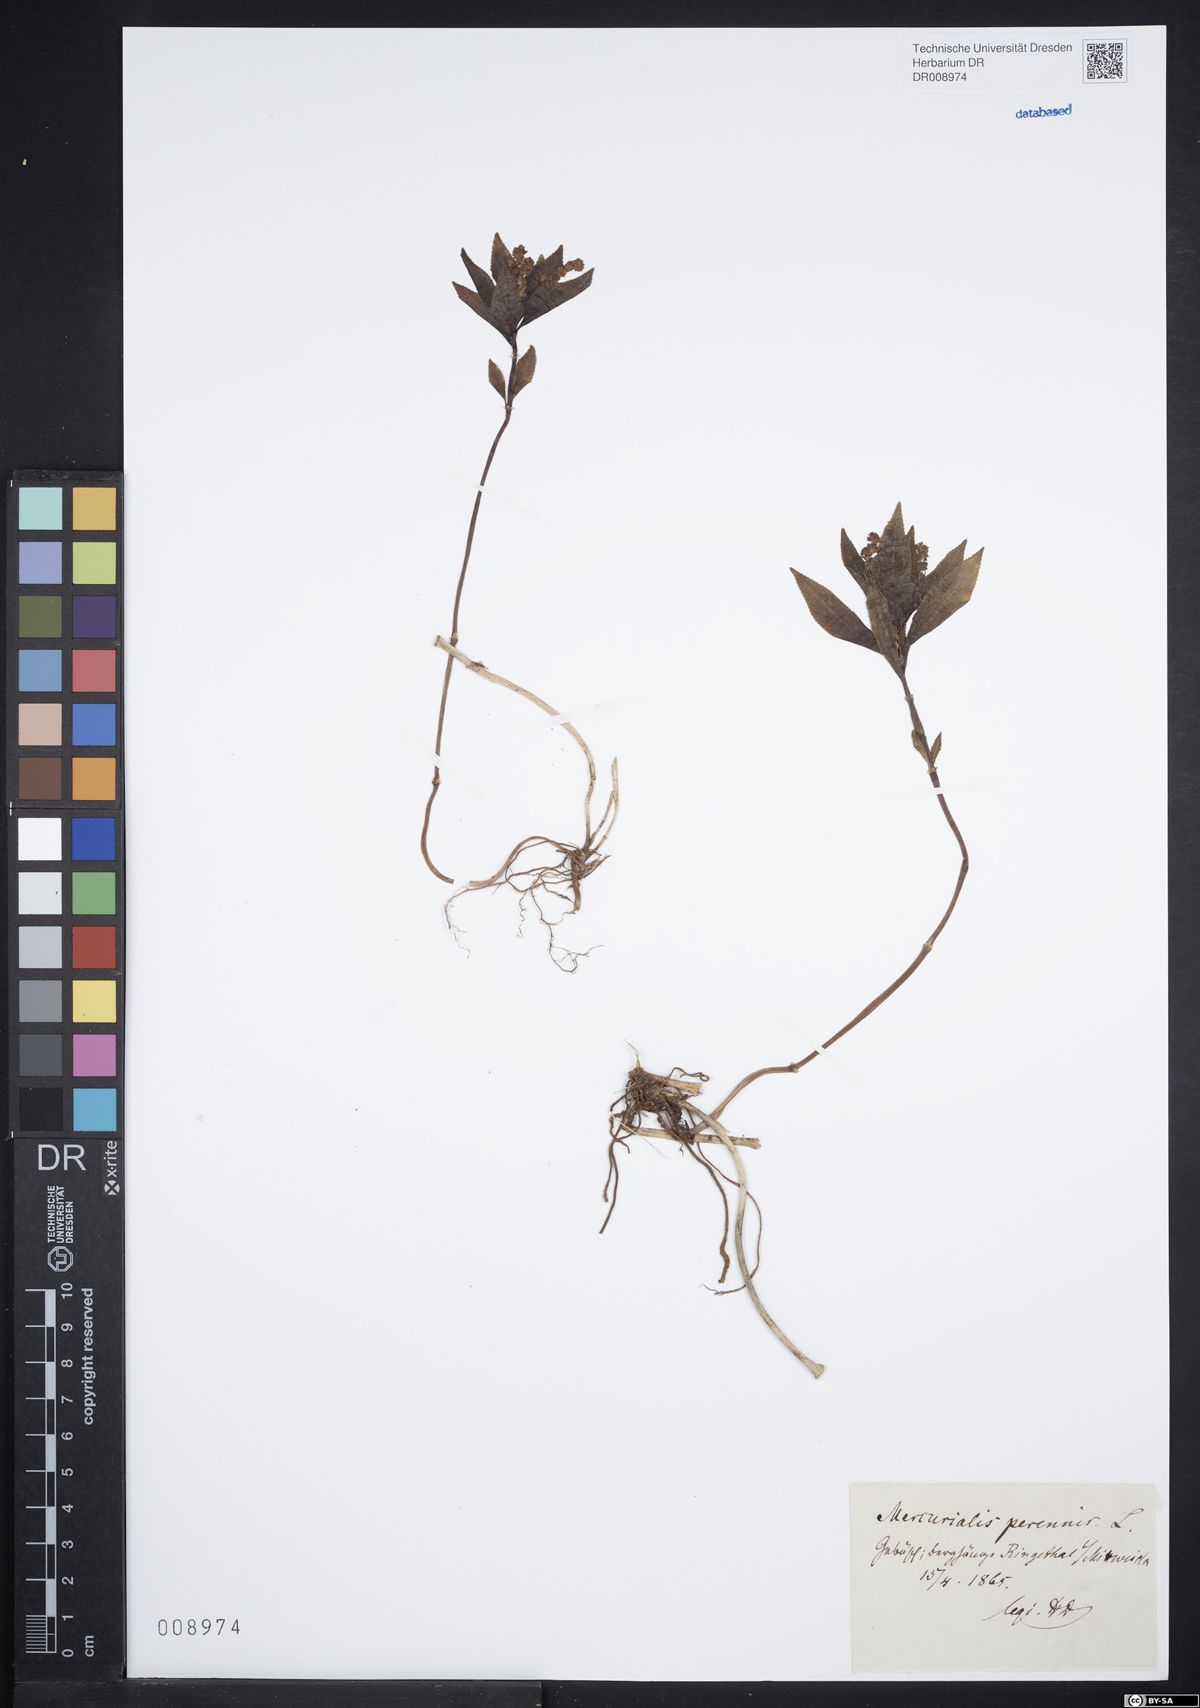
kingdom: Plantae
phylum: Tracheophyta
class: Magnoliopsida
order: Malpighiales
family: Euphorbiaceae
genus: Mercurialis
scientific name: Mercurialis perennis
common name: Dog mercury
